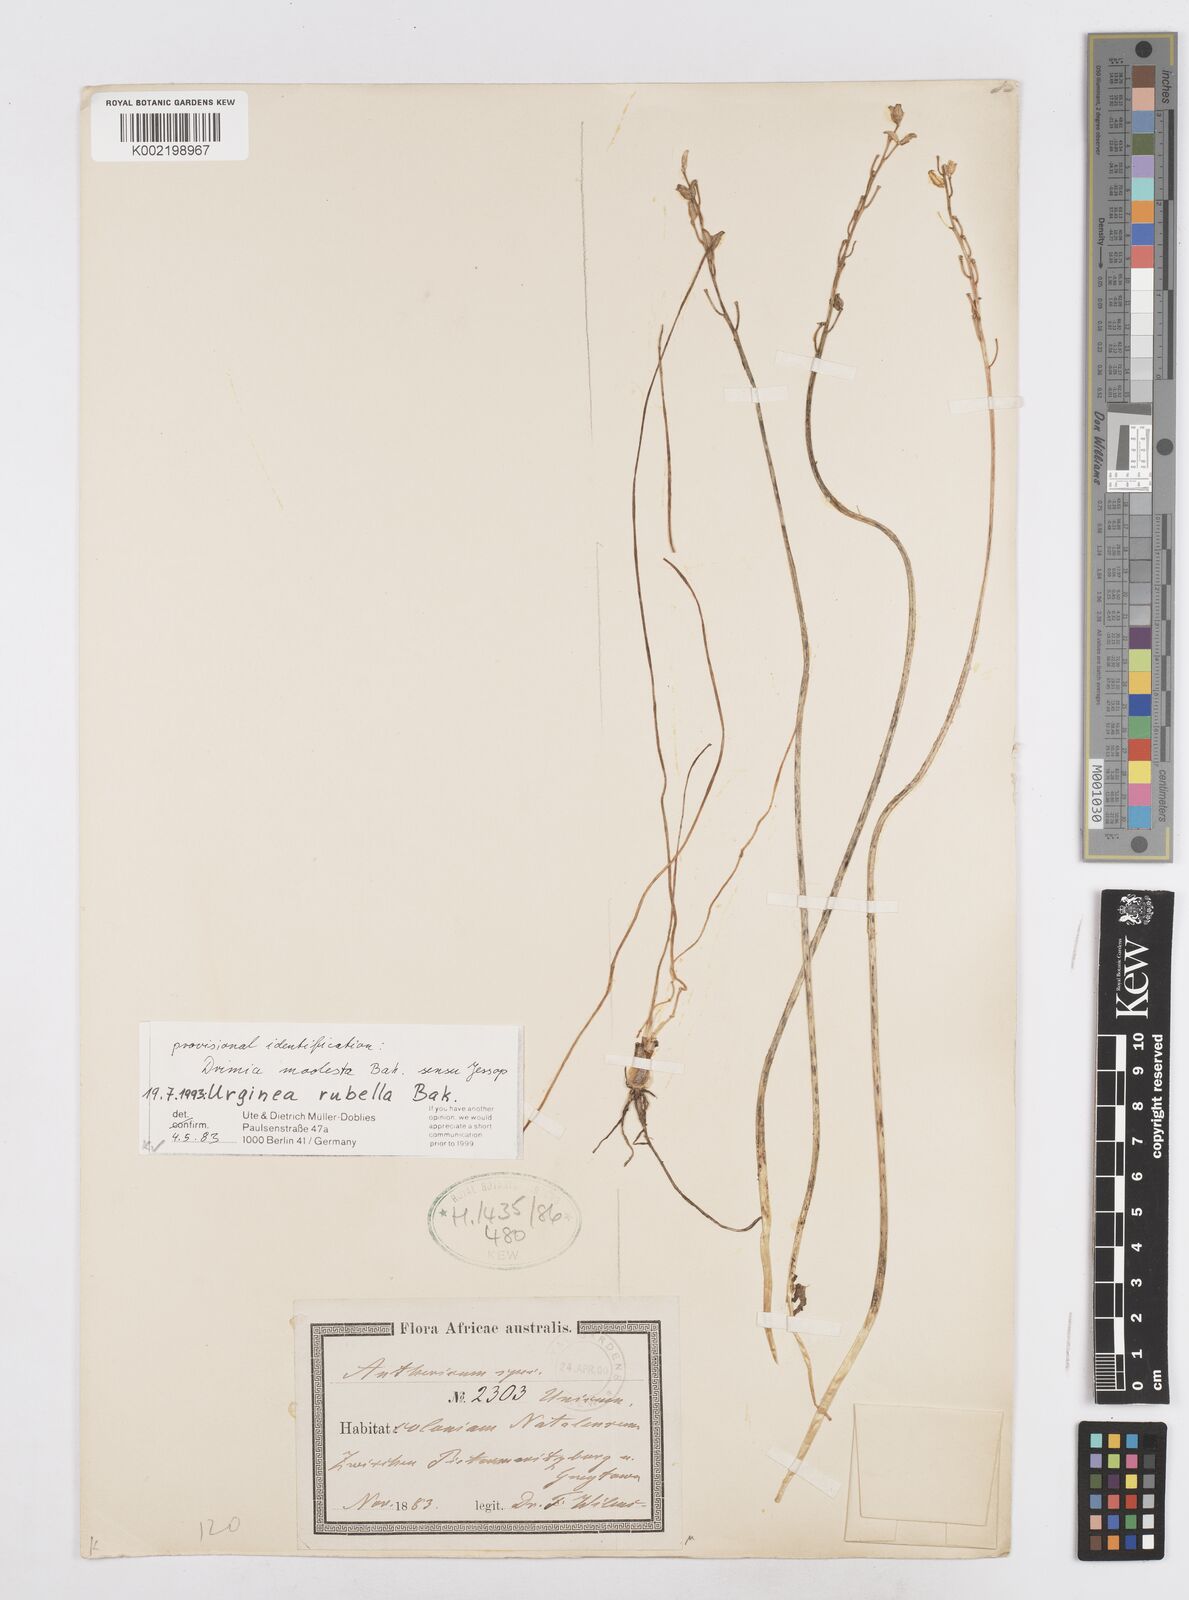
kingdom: Plantae
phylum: Tracheophyta
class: Liliopsida
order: Asparagales
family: Asparagaceae
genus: Drimia
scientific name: Drimia
